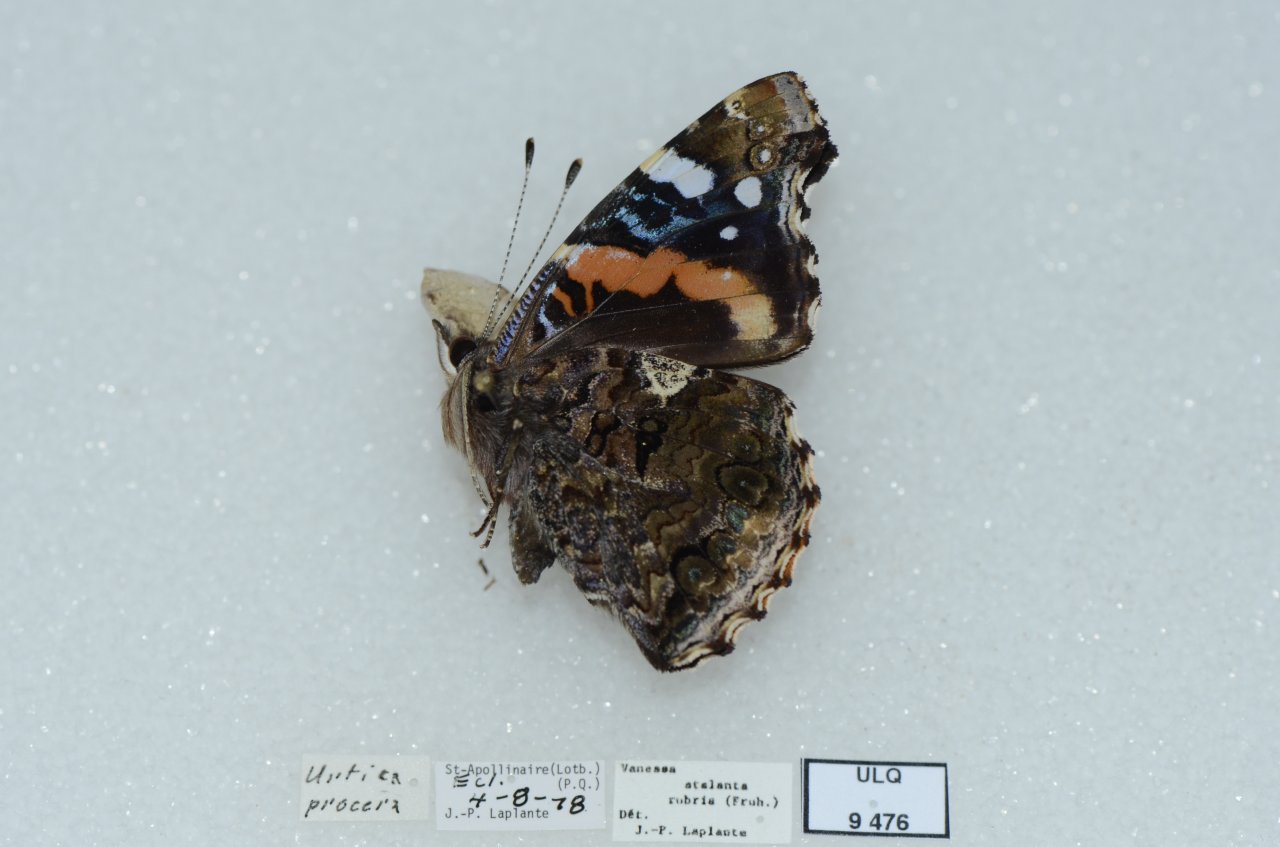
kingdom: Animalia
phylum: Arthropoda
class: Insecta
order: Lepidoptera
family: Nymphalidae
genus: Vanessa
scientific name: Vanessa atalanta
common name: Red Admiral
